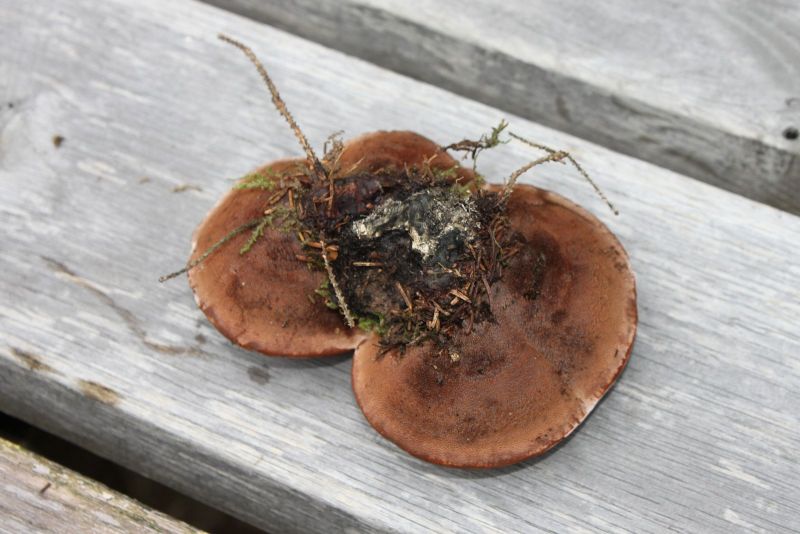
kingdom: Fungi
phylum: Basidiomycota
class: Agaricomycetes
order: Thelephorales
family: Bankeraceae
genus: Hydnellum
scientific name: Hydnellum ferrugineum
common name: rust-korkpigsvamp
